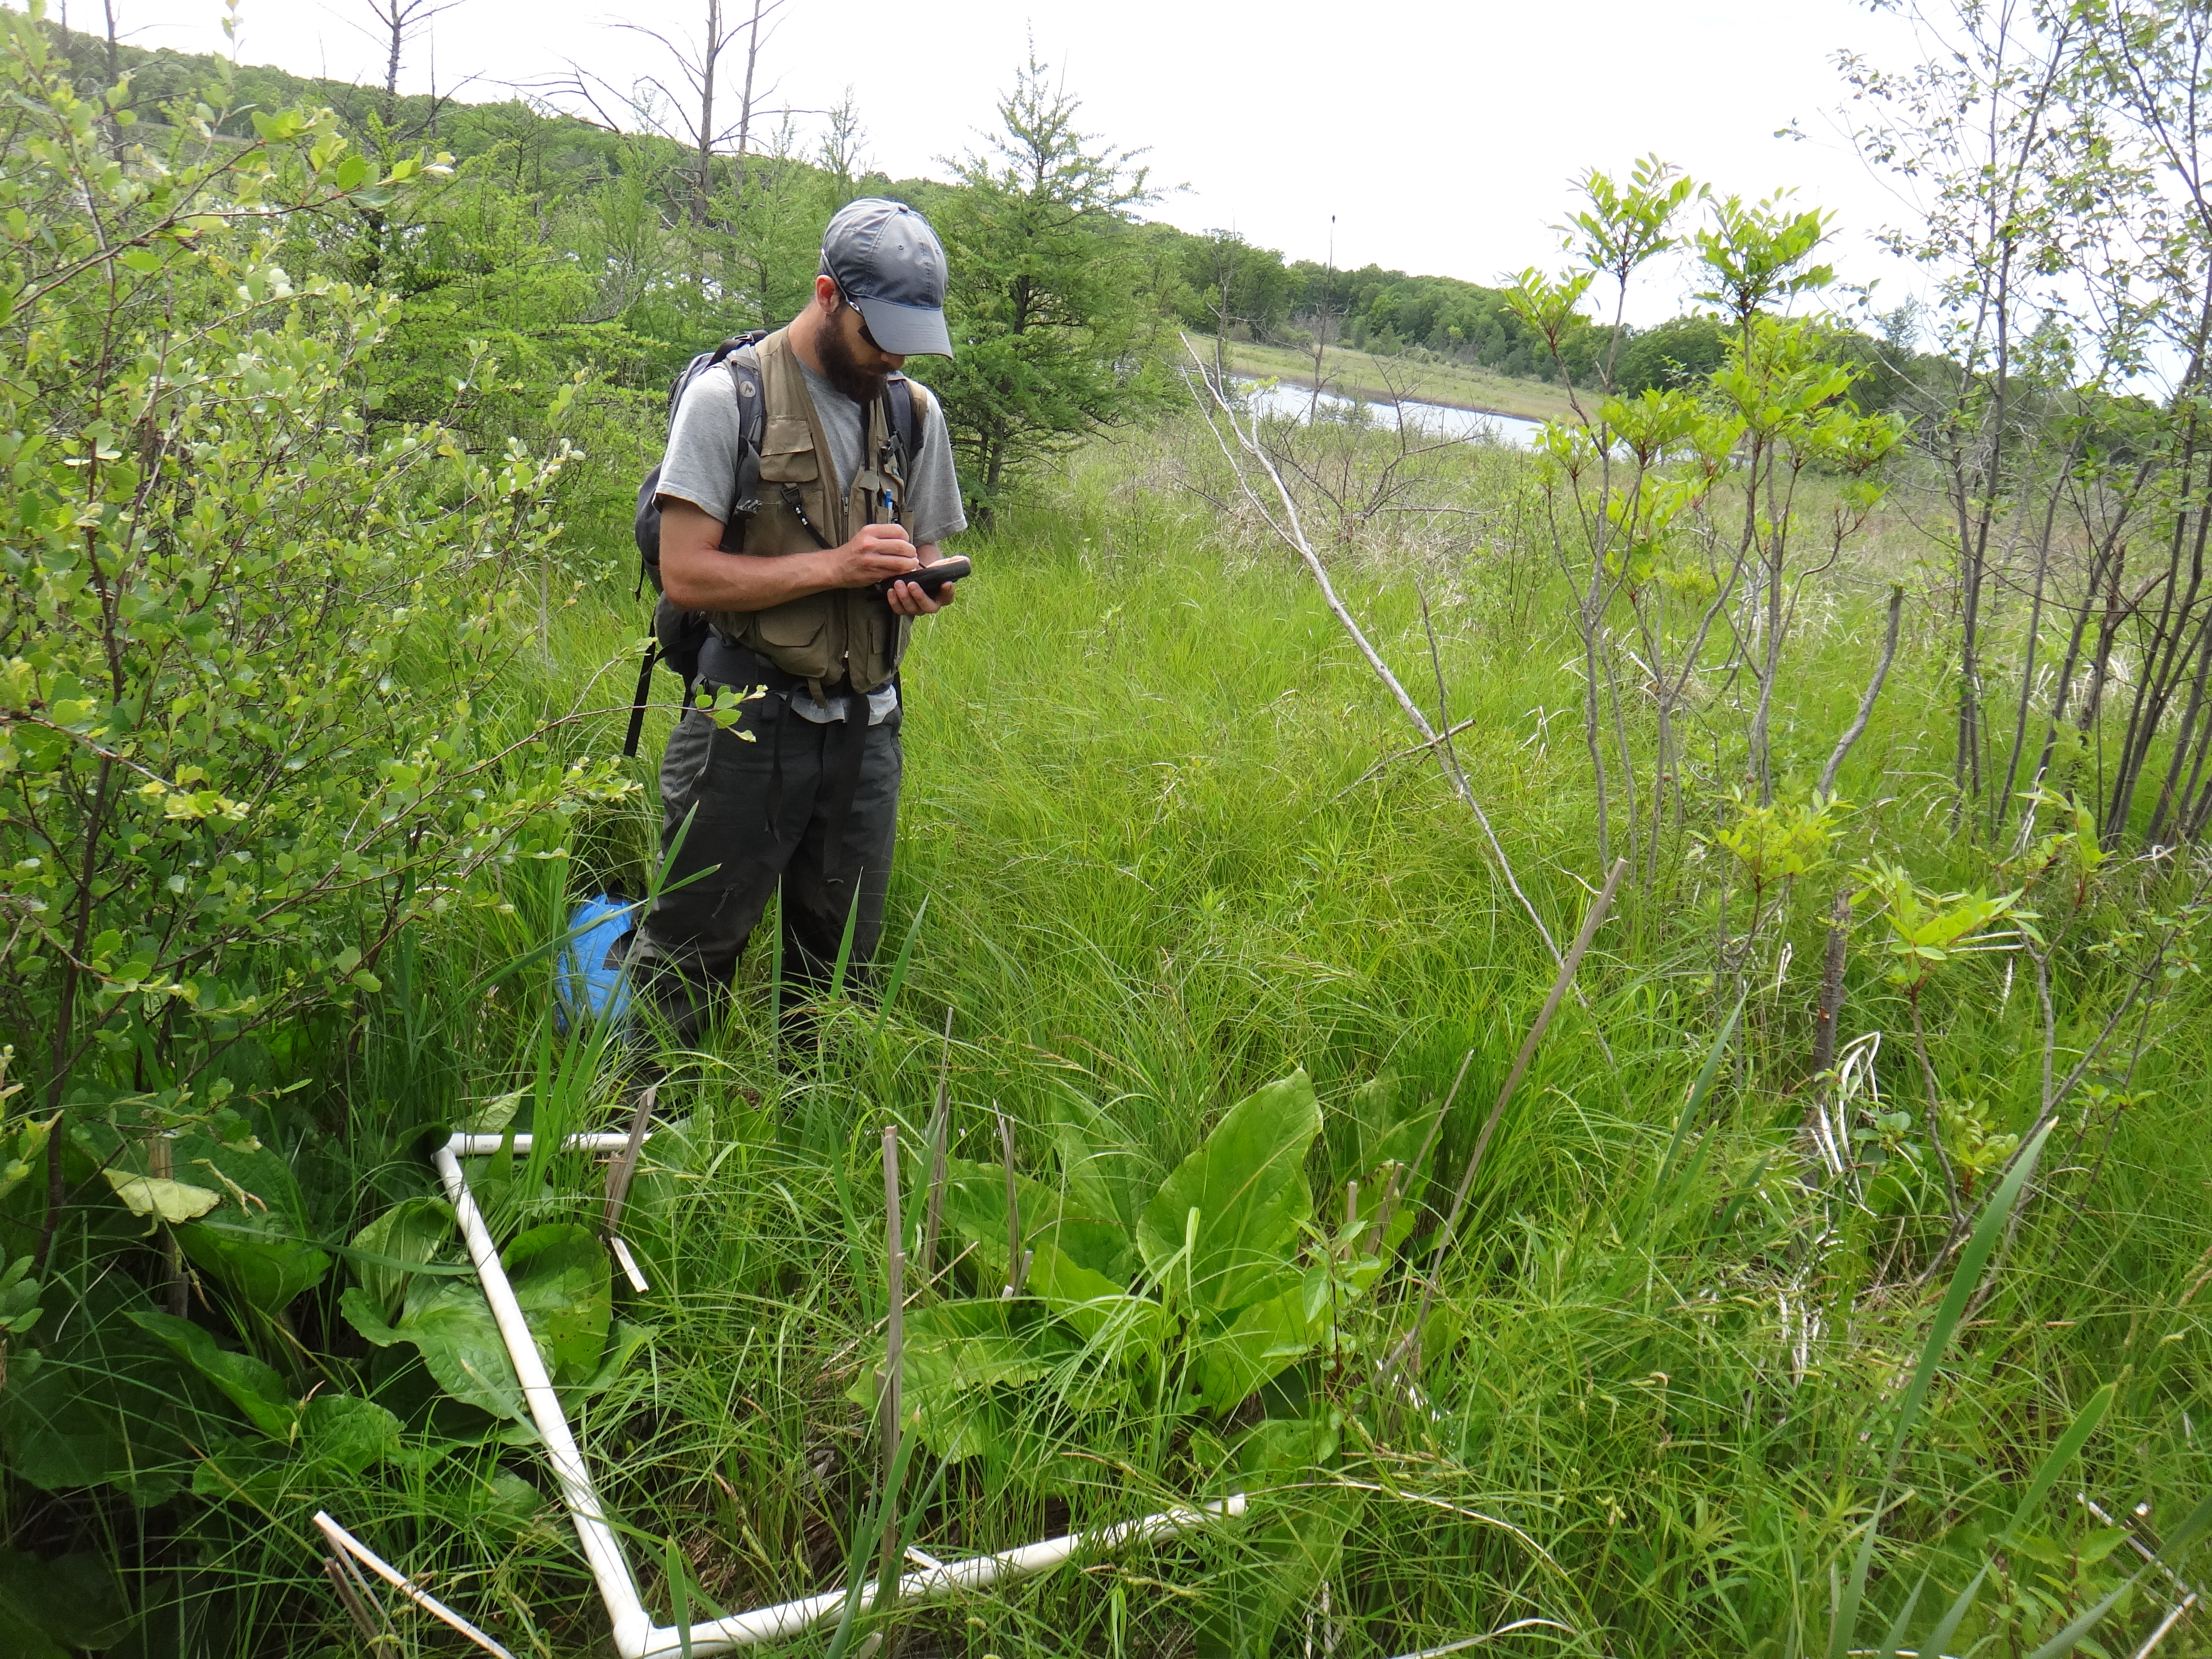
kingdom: Plantae
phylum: Tracheophyta
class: Liliopsida
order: Poales
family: Poaceae
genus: Agrostis
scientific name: Agrostis gigantea
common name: Black bent
